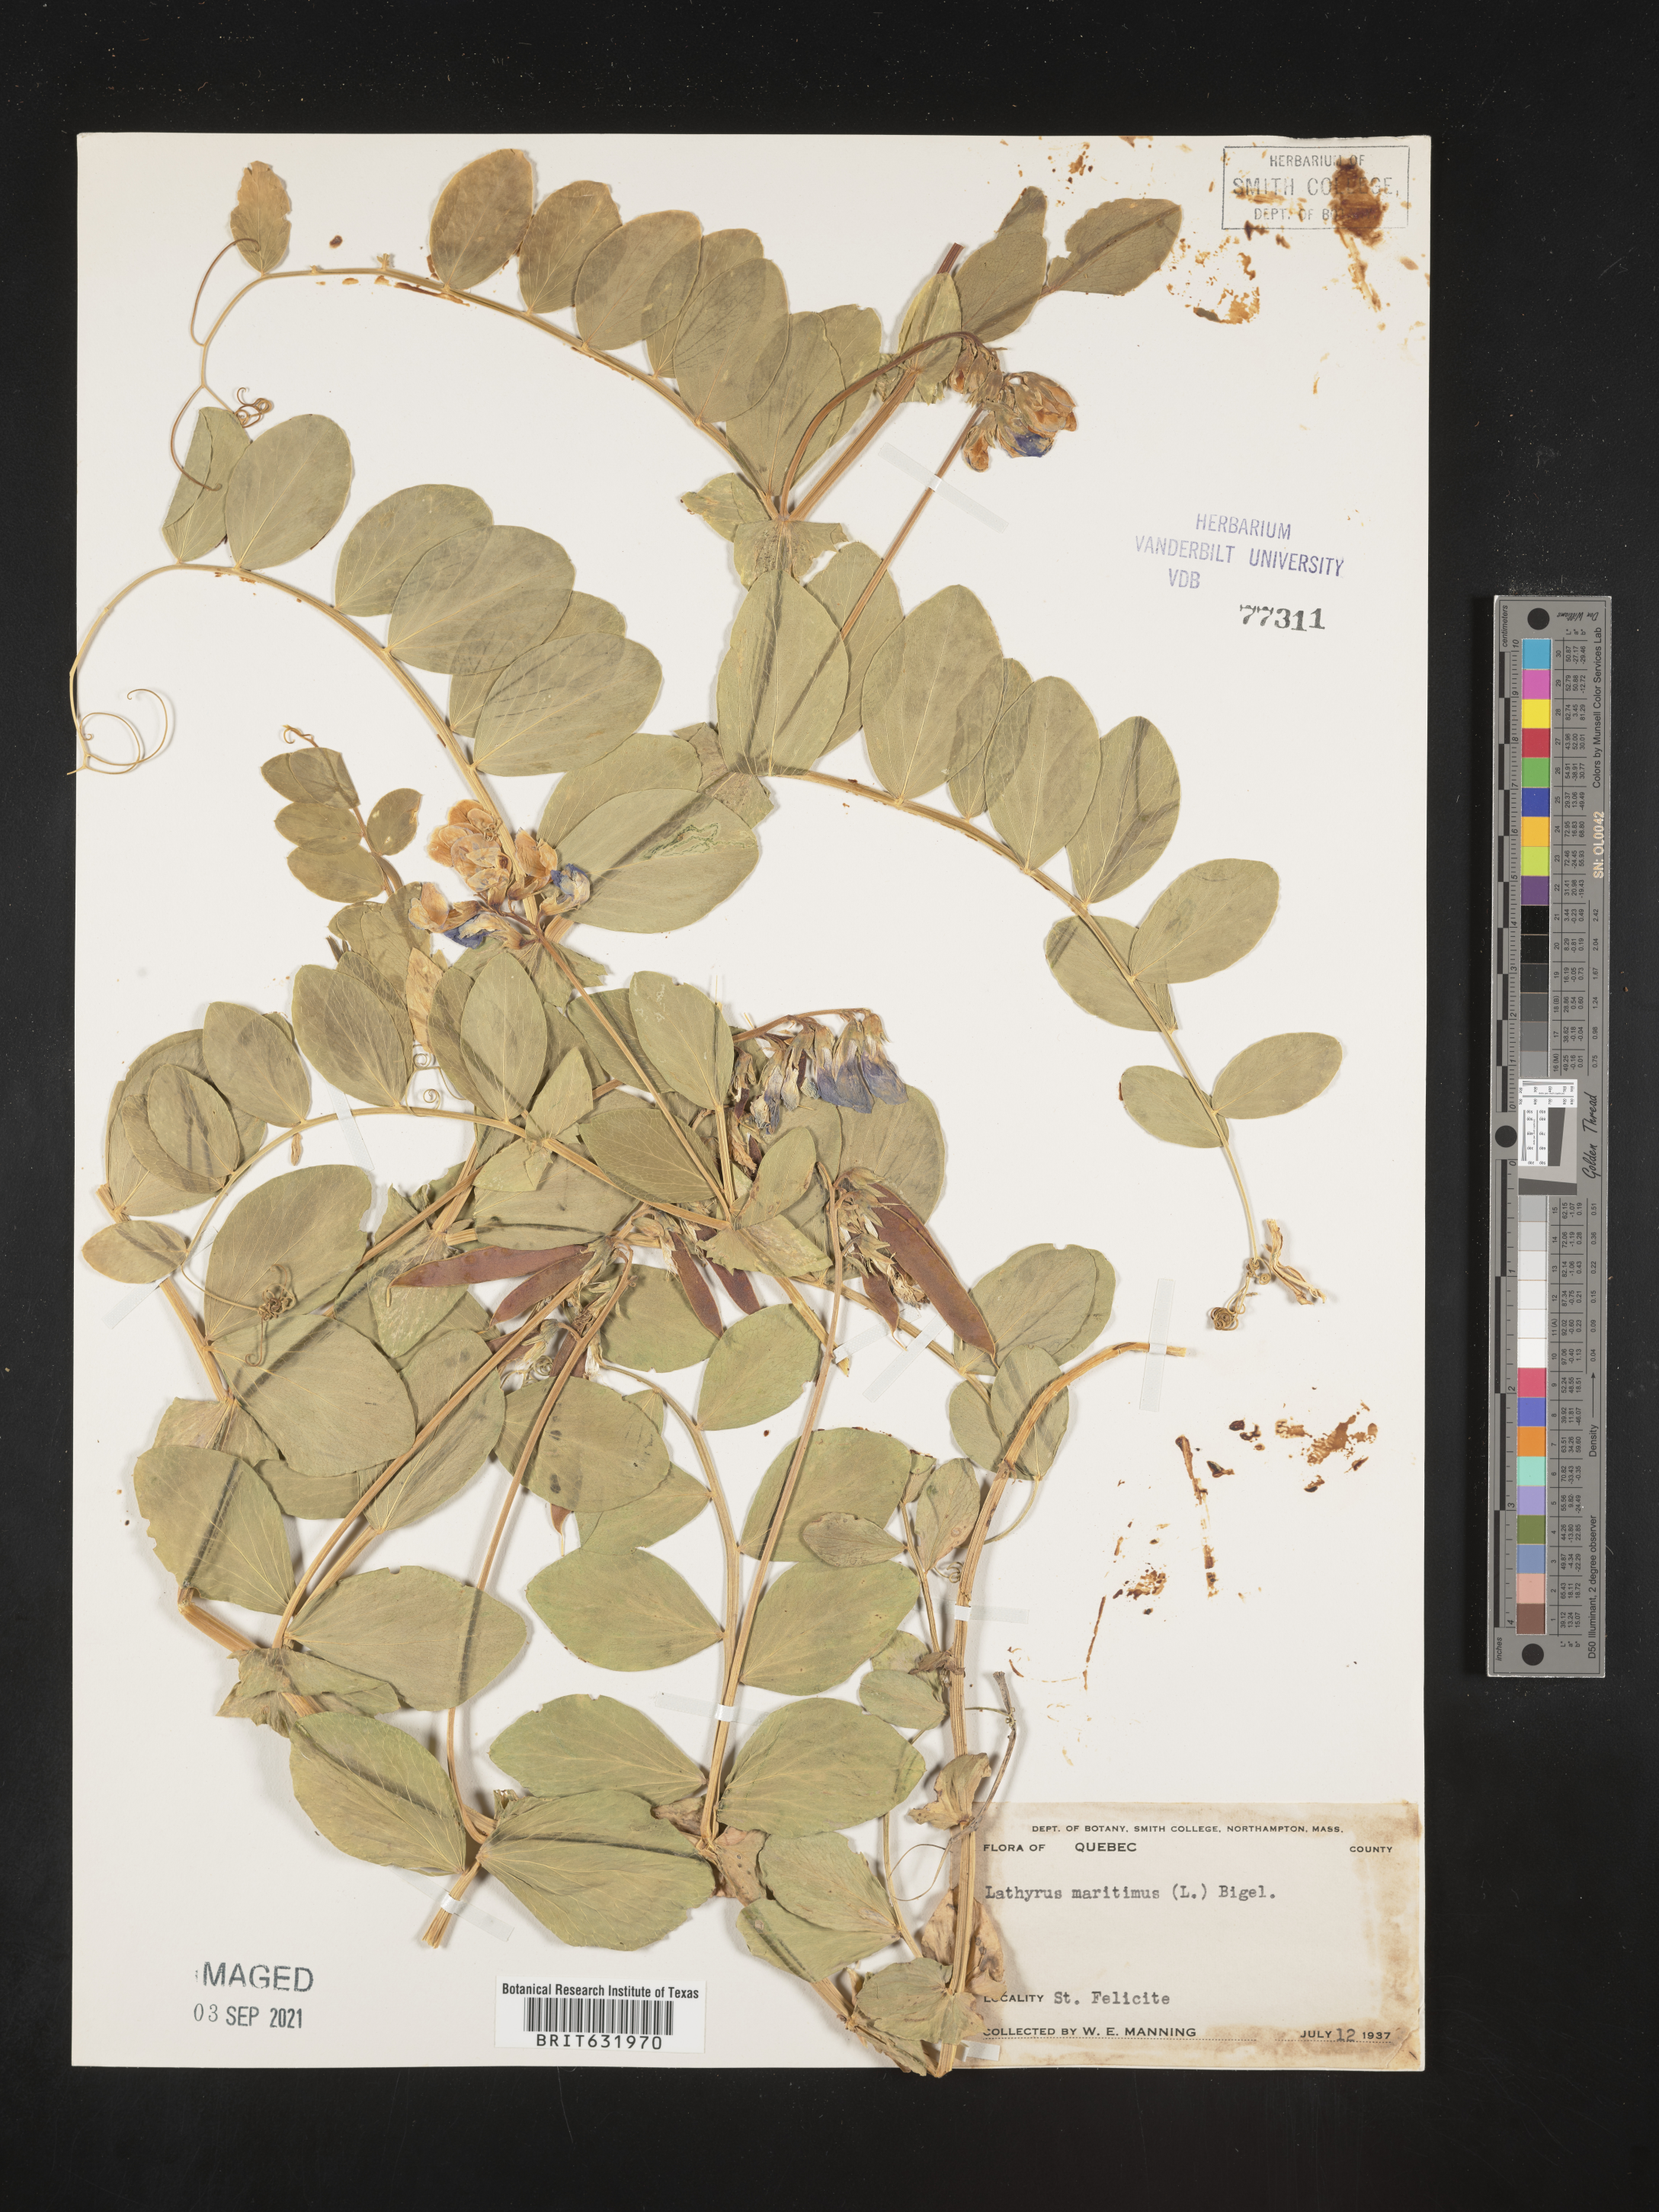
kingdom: Plantae
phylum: Tracheophyta
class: Magnoliopsida
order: Fabales
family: Fabaceae
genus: Lathyrus
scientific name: Lathyrus
